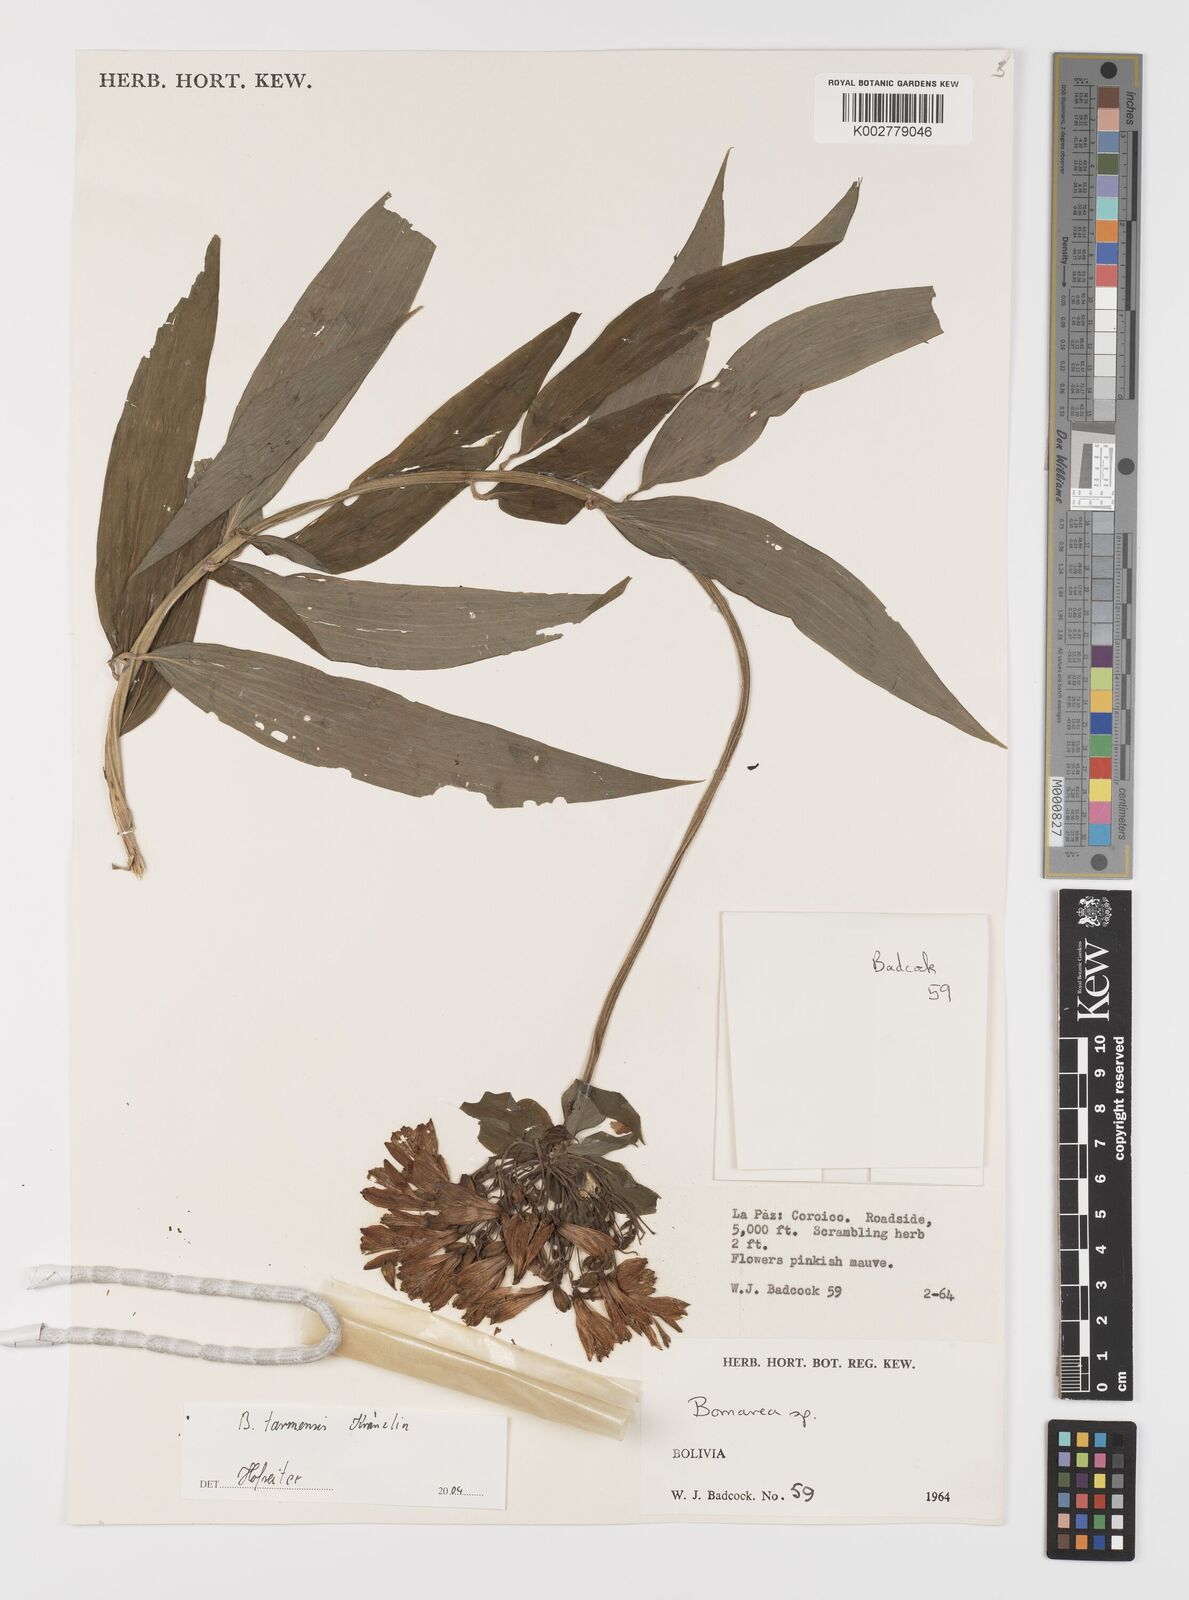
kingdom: Plantae
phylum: Tracheophyta
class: Liliopsida
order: Liliales
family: Alstroemeriaceae
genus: Bomarea
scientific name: Bomarea tarmensis
